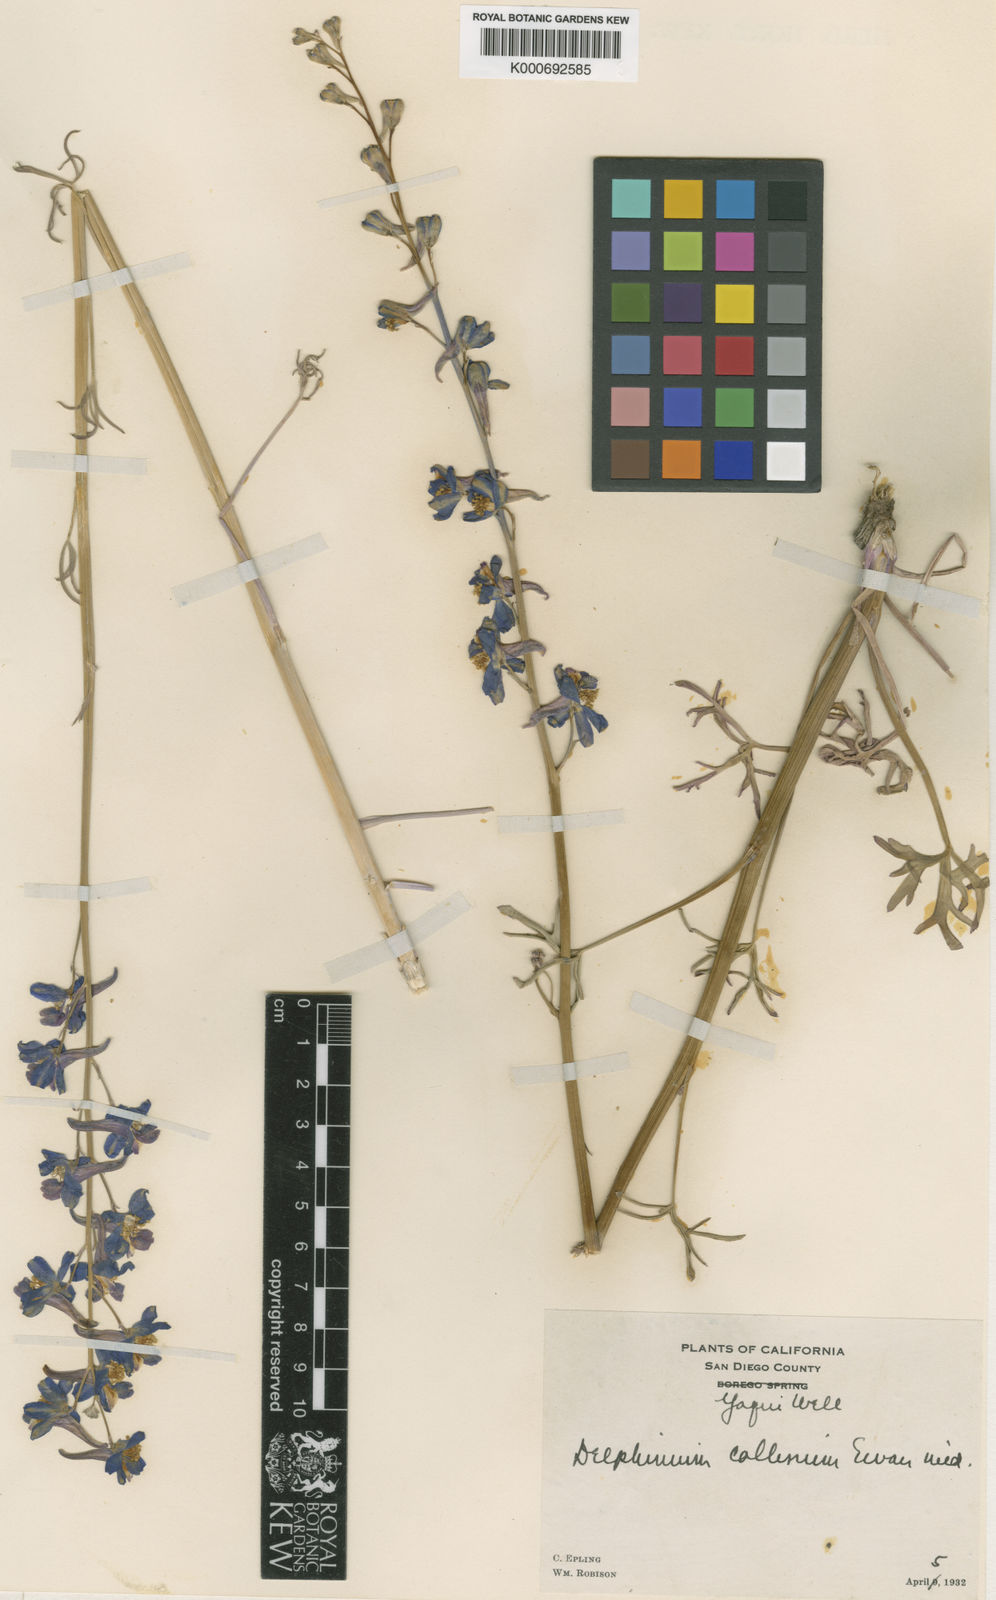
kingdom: Plantae
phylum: Tracheophyta
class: Magnoliopsida
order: Ranunculales
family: Ranunculaceae
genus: Delphinium
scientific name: Delphinium parishii
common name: Apache larkspur
